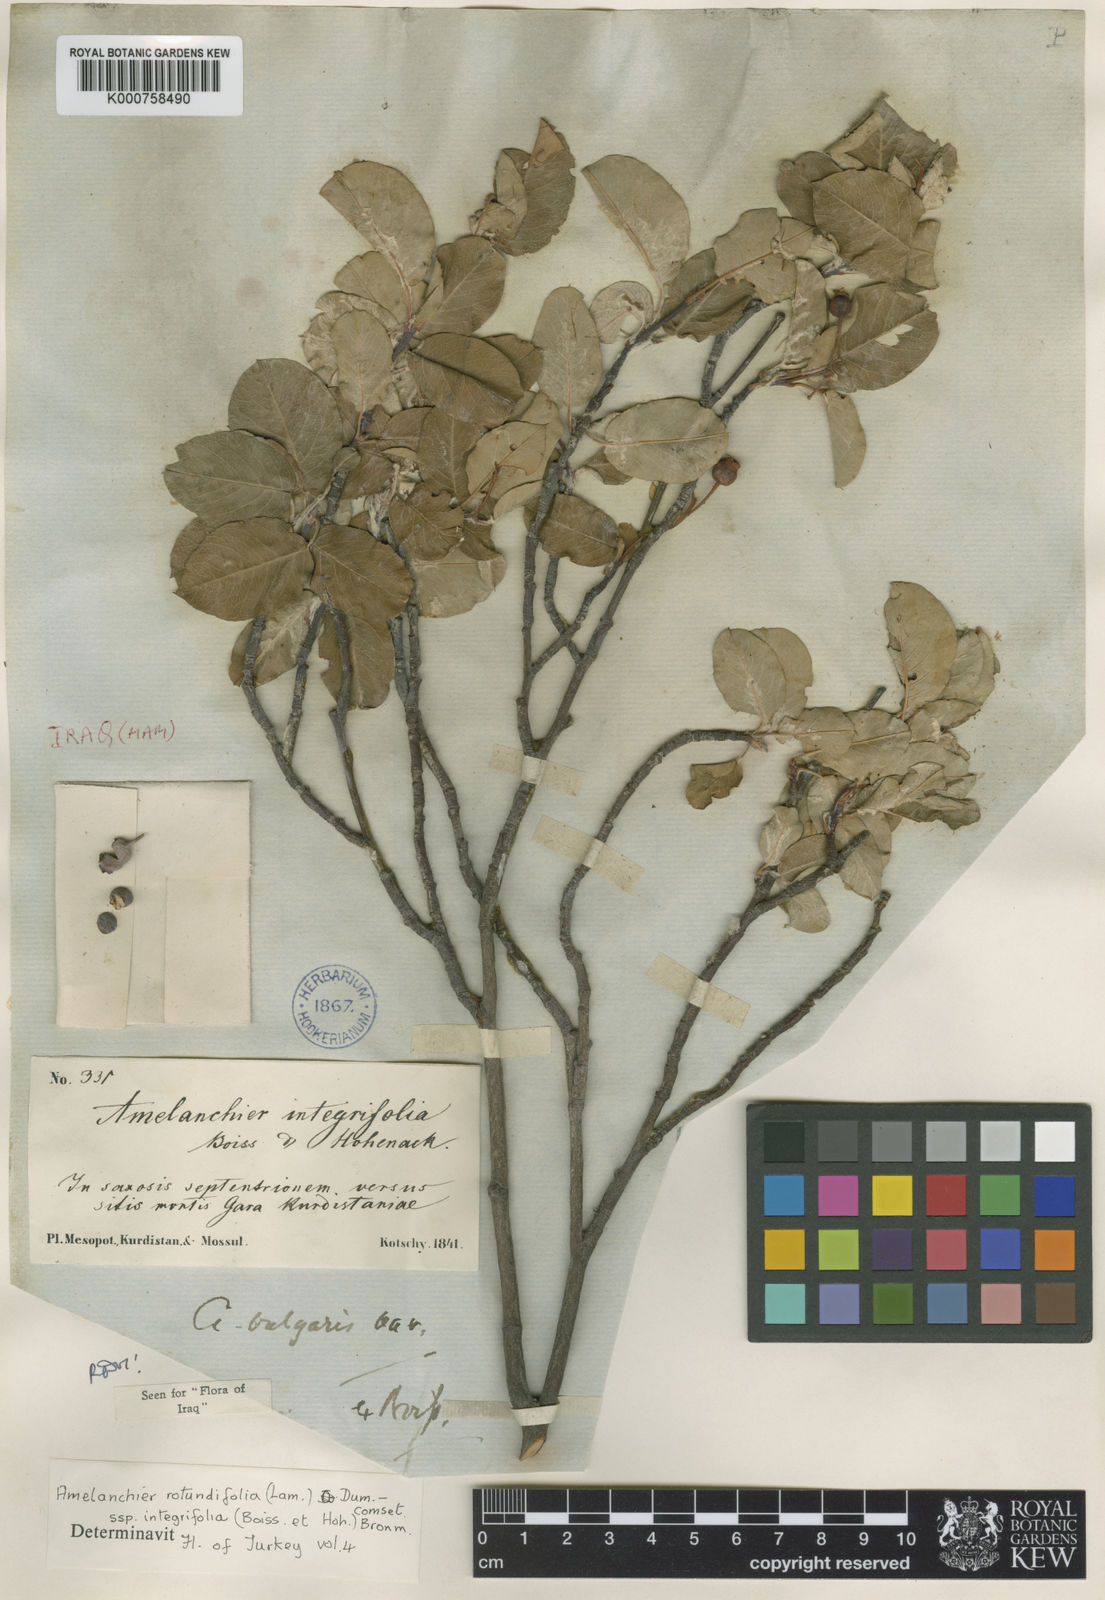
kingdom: Plantae
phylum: Tracheophyta
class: Magnoliopsida
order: Rosales
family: Rosaceae
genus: Amelanchier
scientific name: Amelanchier ovalis
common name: Serviceberry
